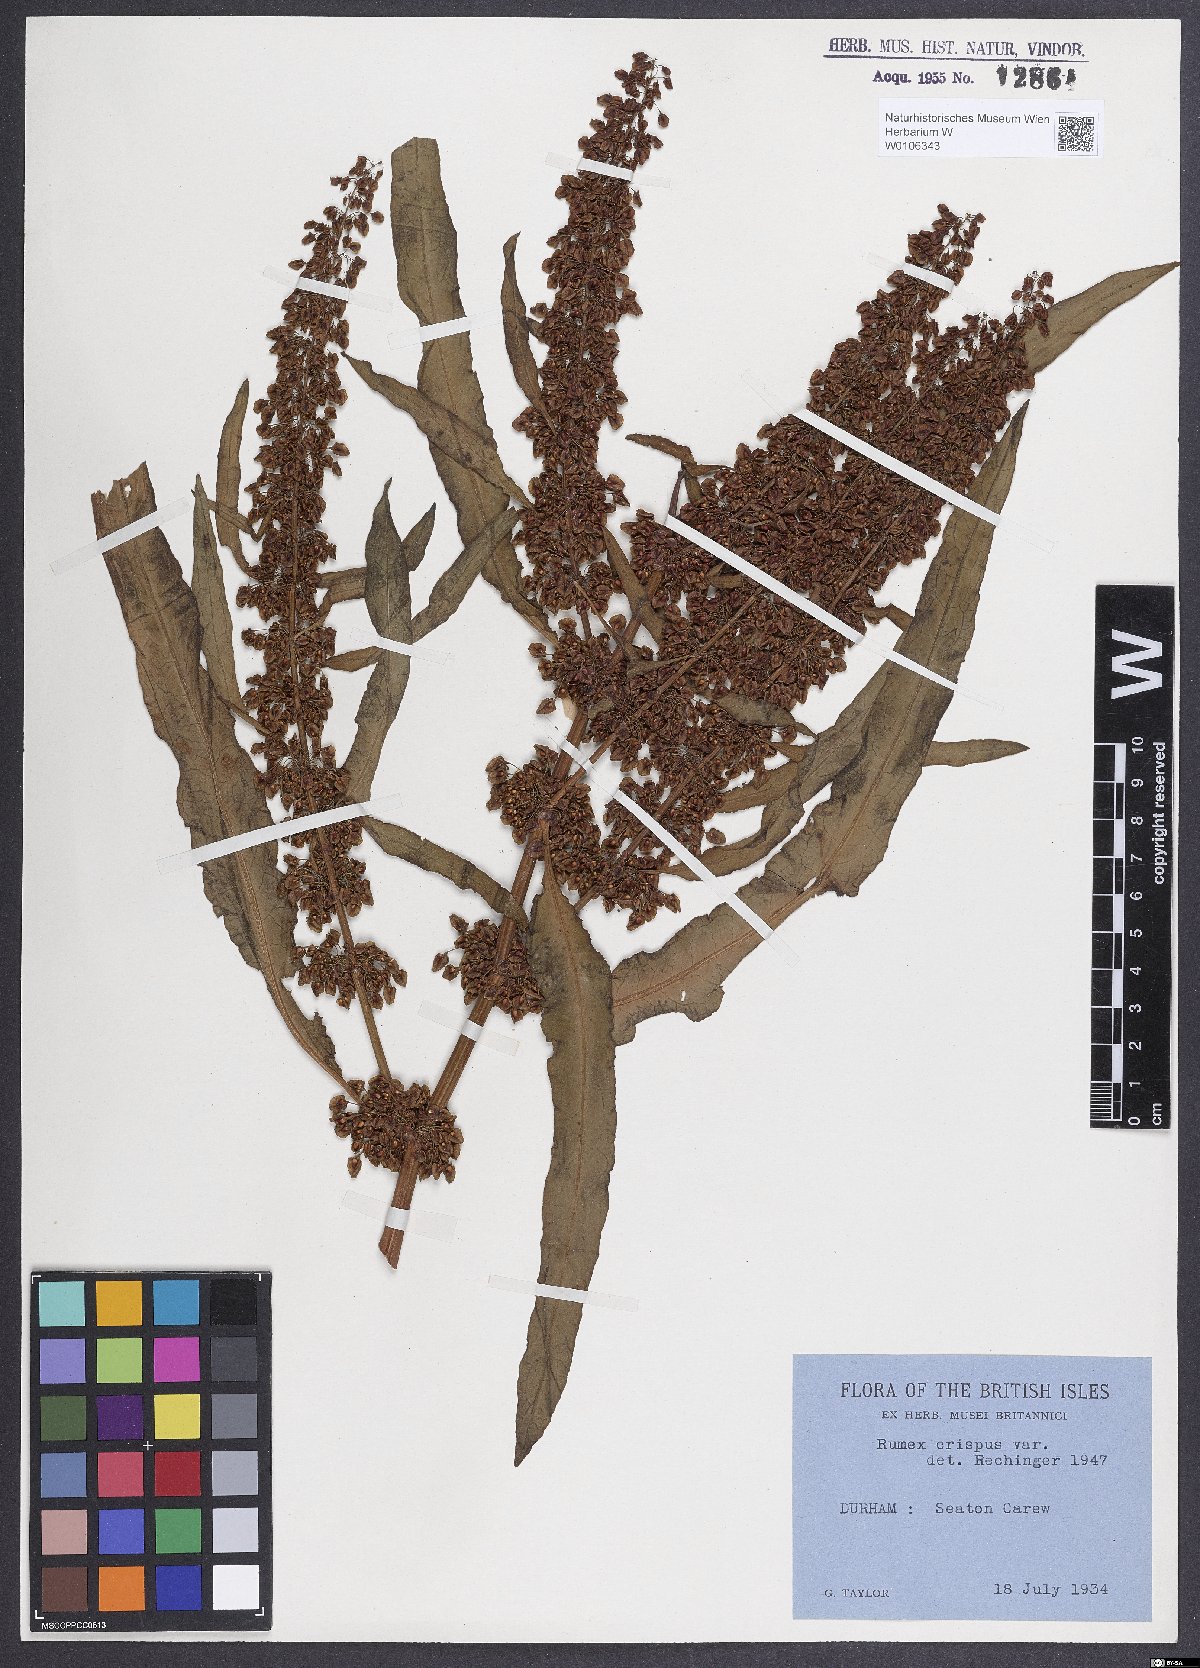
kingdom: Plantae
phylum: Tracheophyta
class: Magnoliopsida
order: Caryophyllales
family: Polygonaceae
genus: Rumex
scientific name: Rumex crispus
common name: Curled dock
